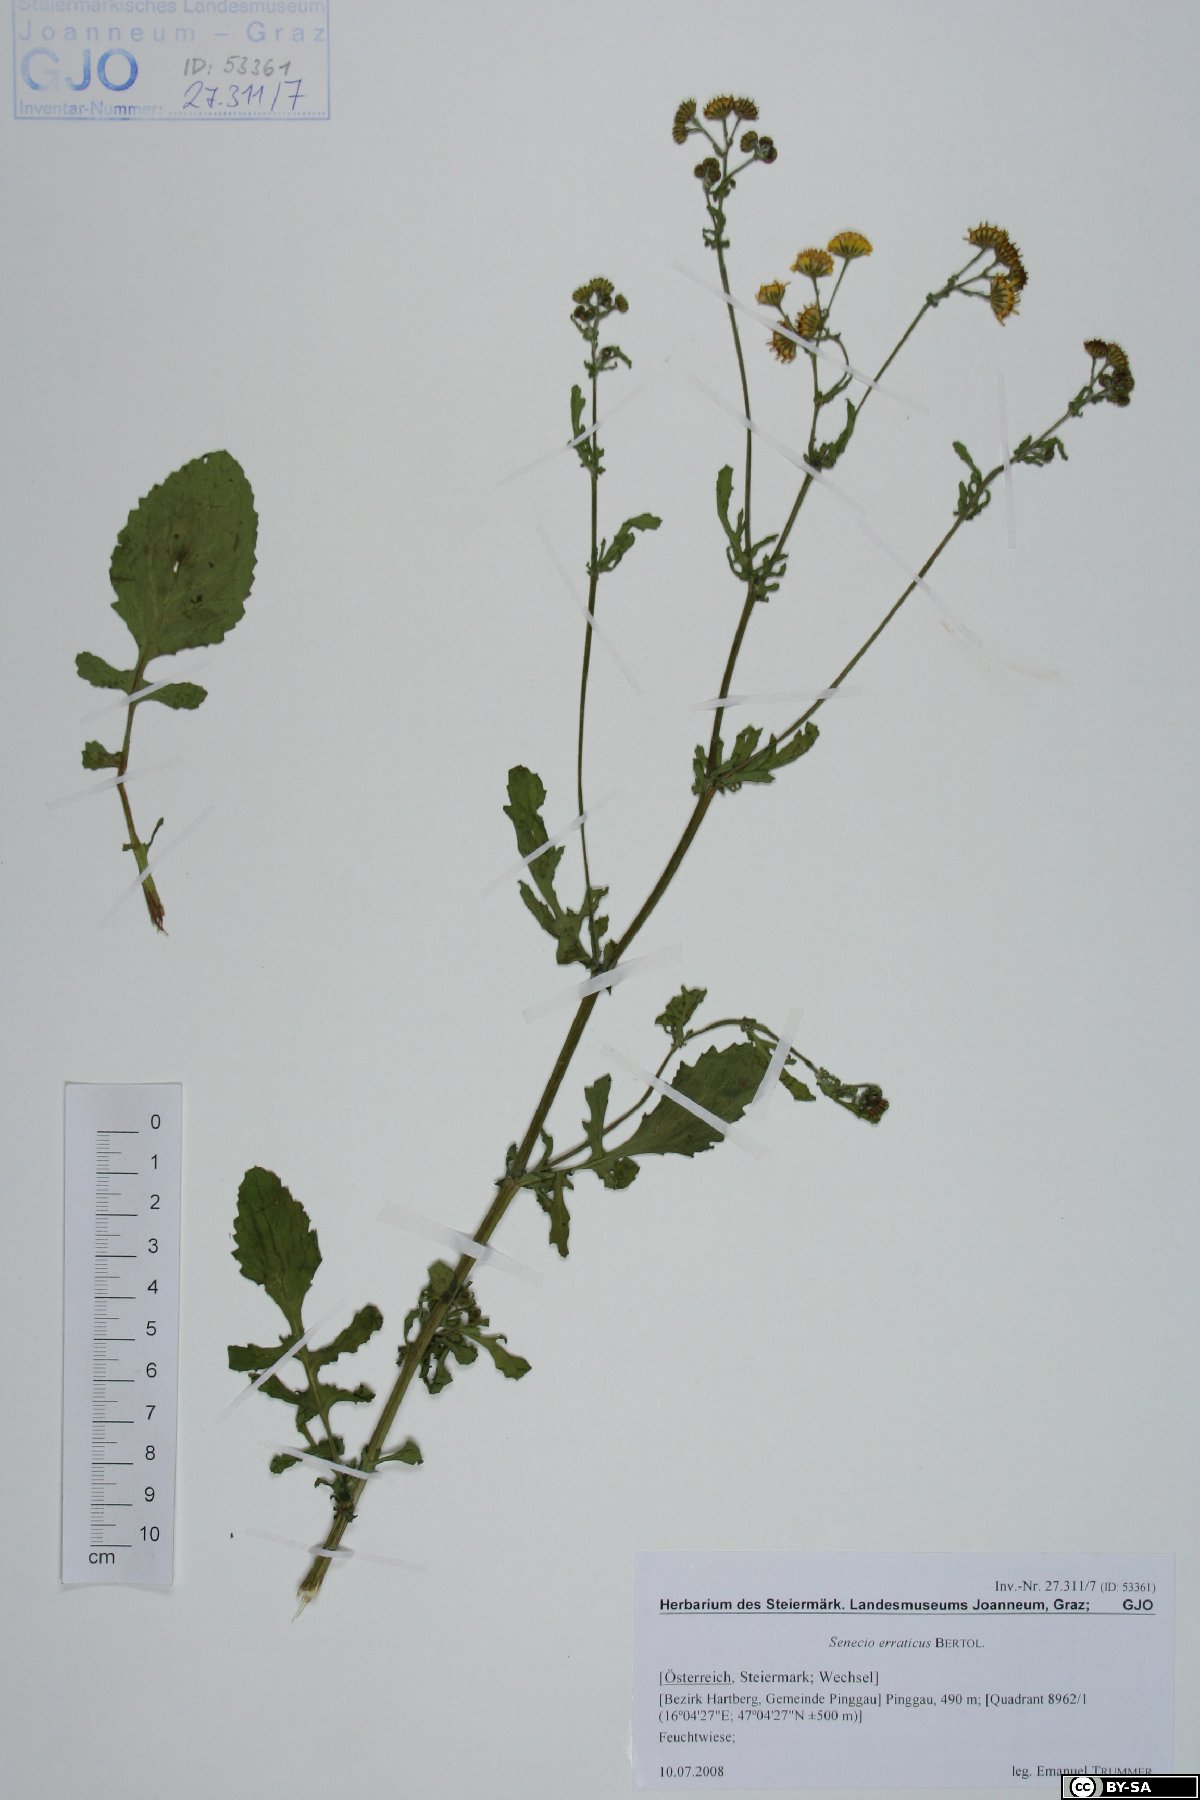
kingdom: Plantae
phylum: Tracheophyta
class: Magnoliopsida
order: Asterales
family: Asteraceae
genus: Jacobaea
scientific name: Jacobaea erratica
